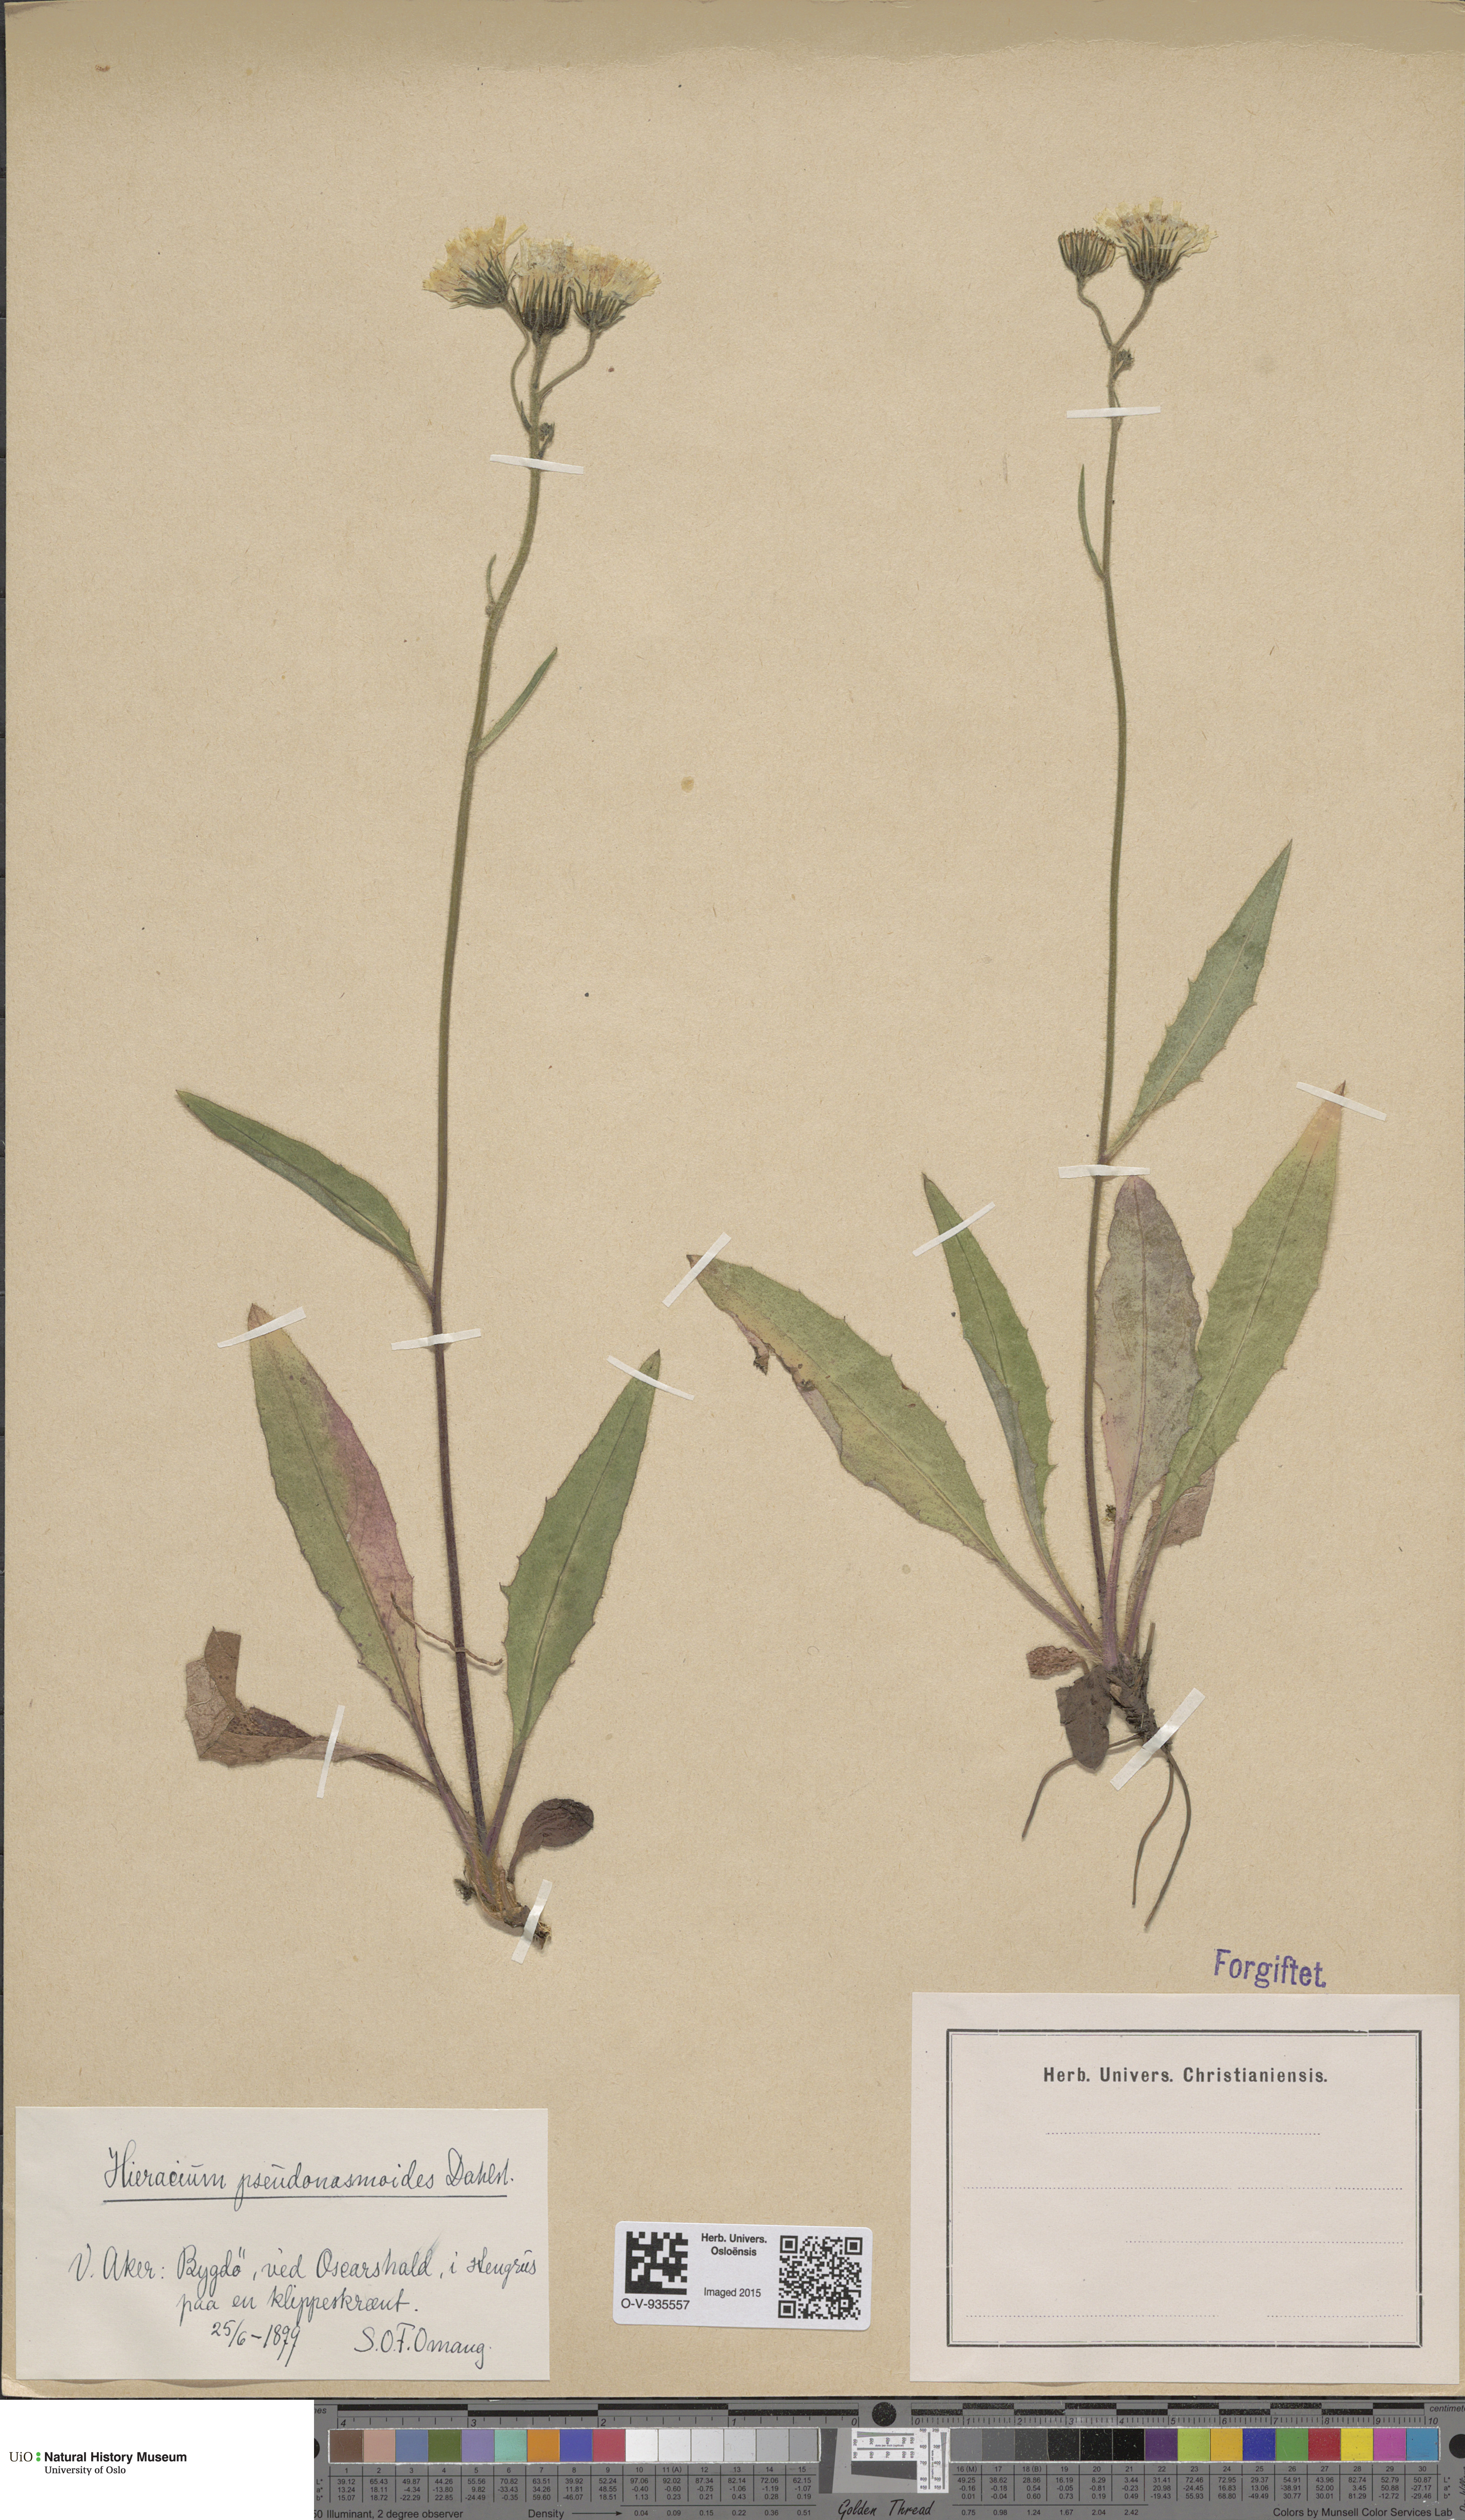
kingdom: Plantae
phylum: Tracheophyta
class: Magnoliopsida
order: Asterales
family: Asteraceae
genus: Hieracium
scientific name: Hieracium saxifragum
